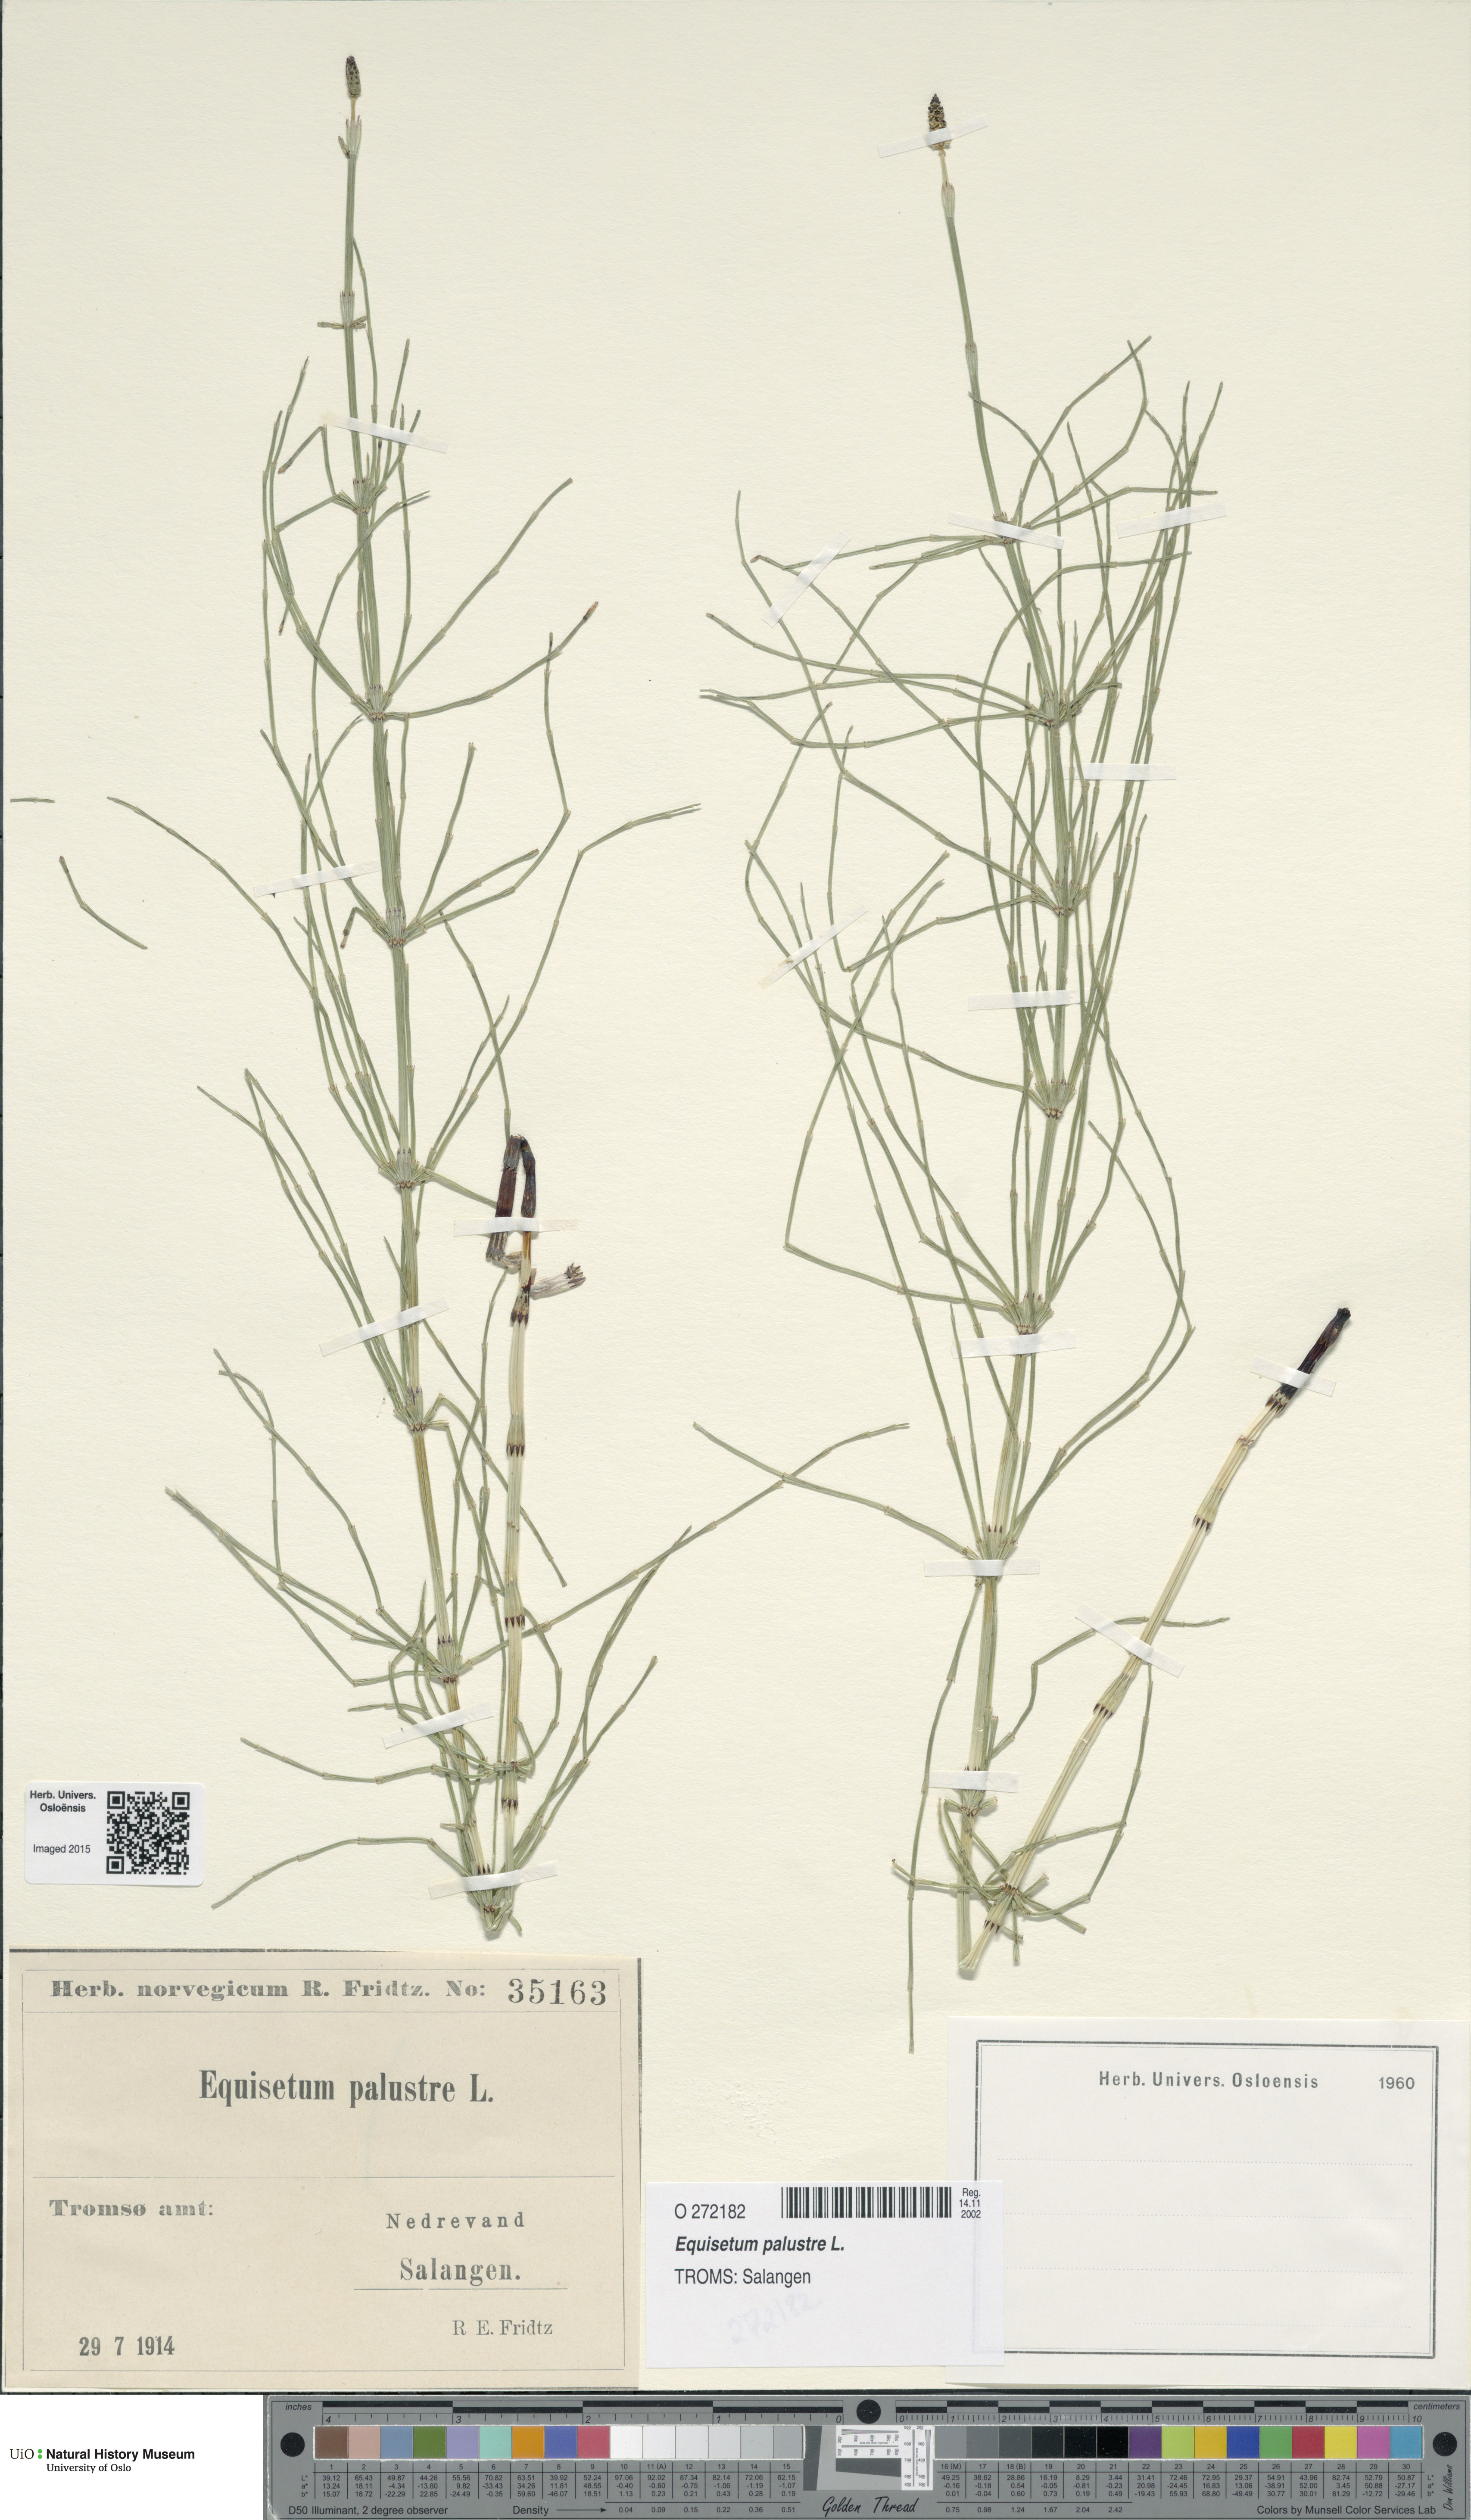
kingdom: Plantae
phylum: Tracheophyta
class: Polypodiopsida
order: Equisetales
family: Equisetaceae
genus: Equisetum
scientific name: Equisetum palustre
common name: Marsh horsetail
